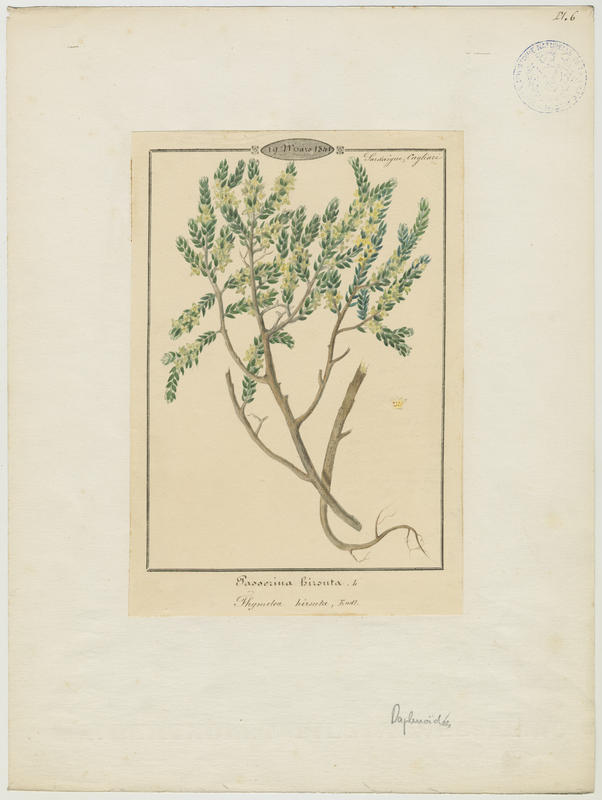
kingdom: Plantae
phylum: Tracheophyta
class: Magnoliopsida
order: Malvales
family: Thymelaeaceae
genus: Thymelaea
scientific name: Thymelaea hirsuta
